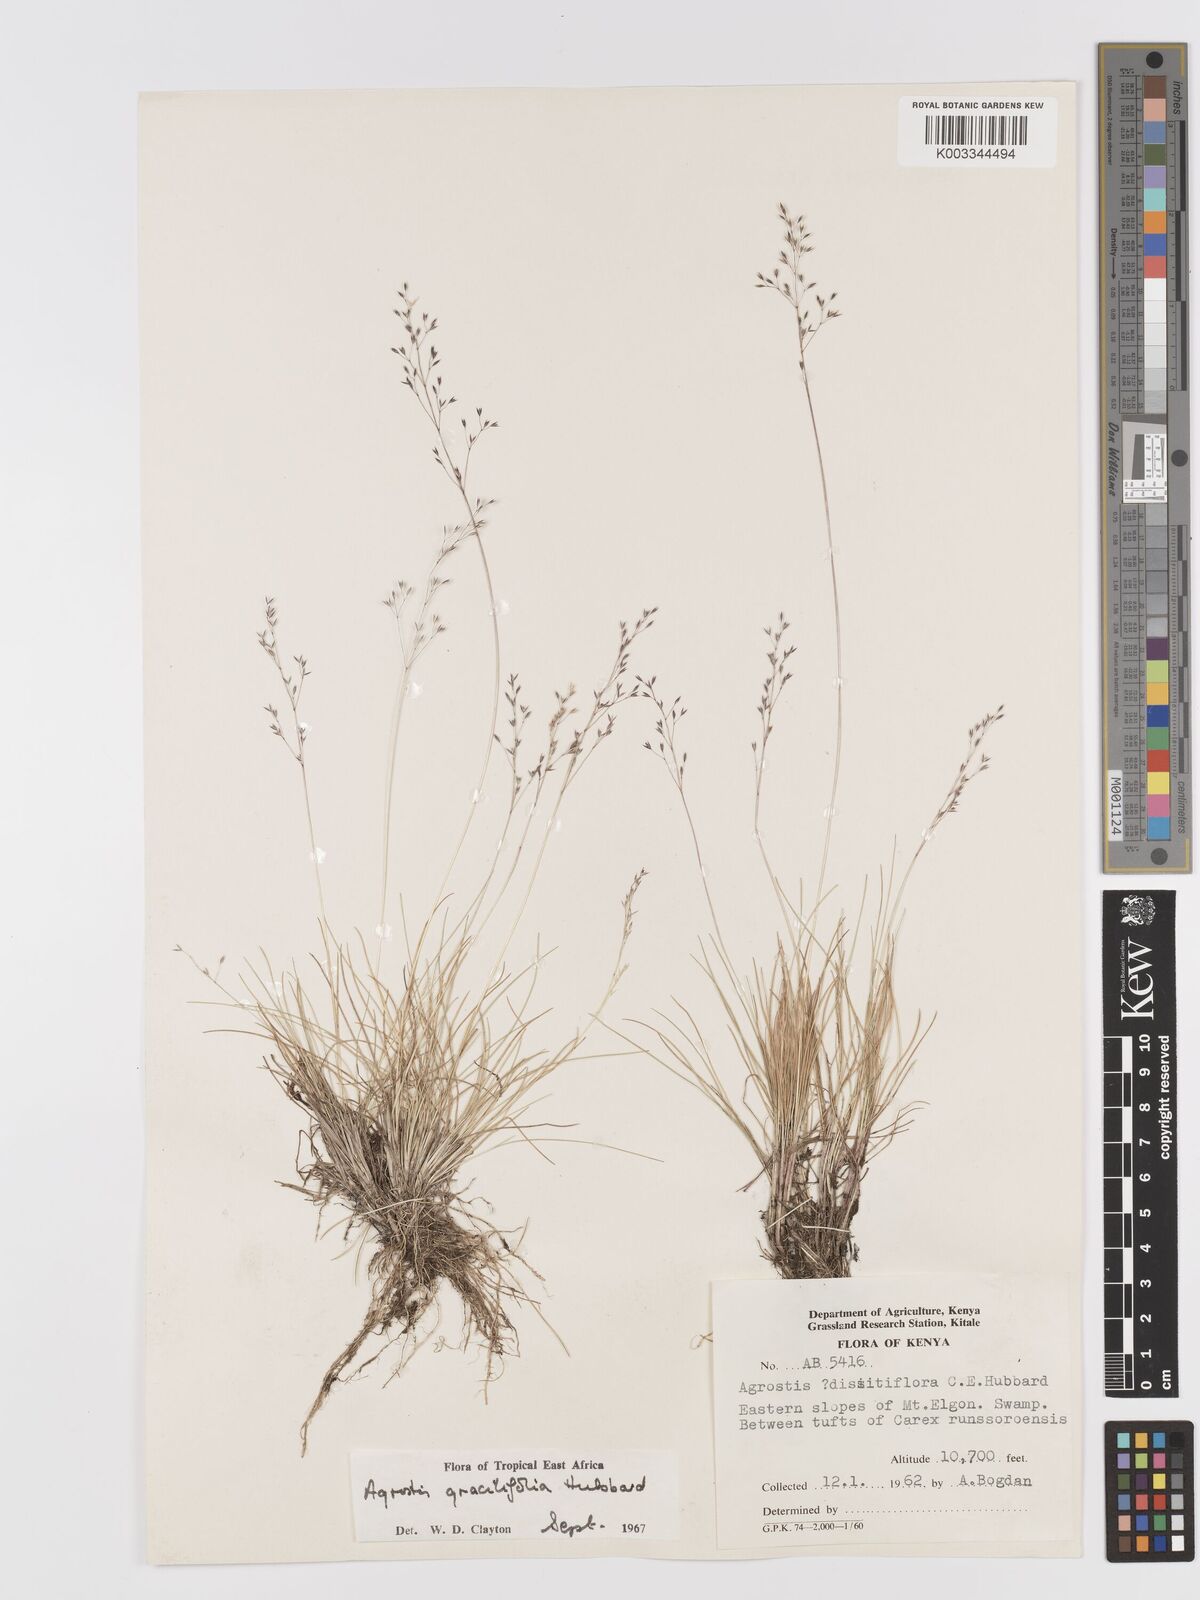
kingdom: Plantae
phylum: Tracheophyta
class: Liliopsida
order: Poales
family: Poaceae
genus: Agrostis
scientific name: Agrostis gracilifolia
